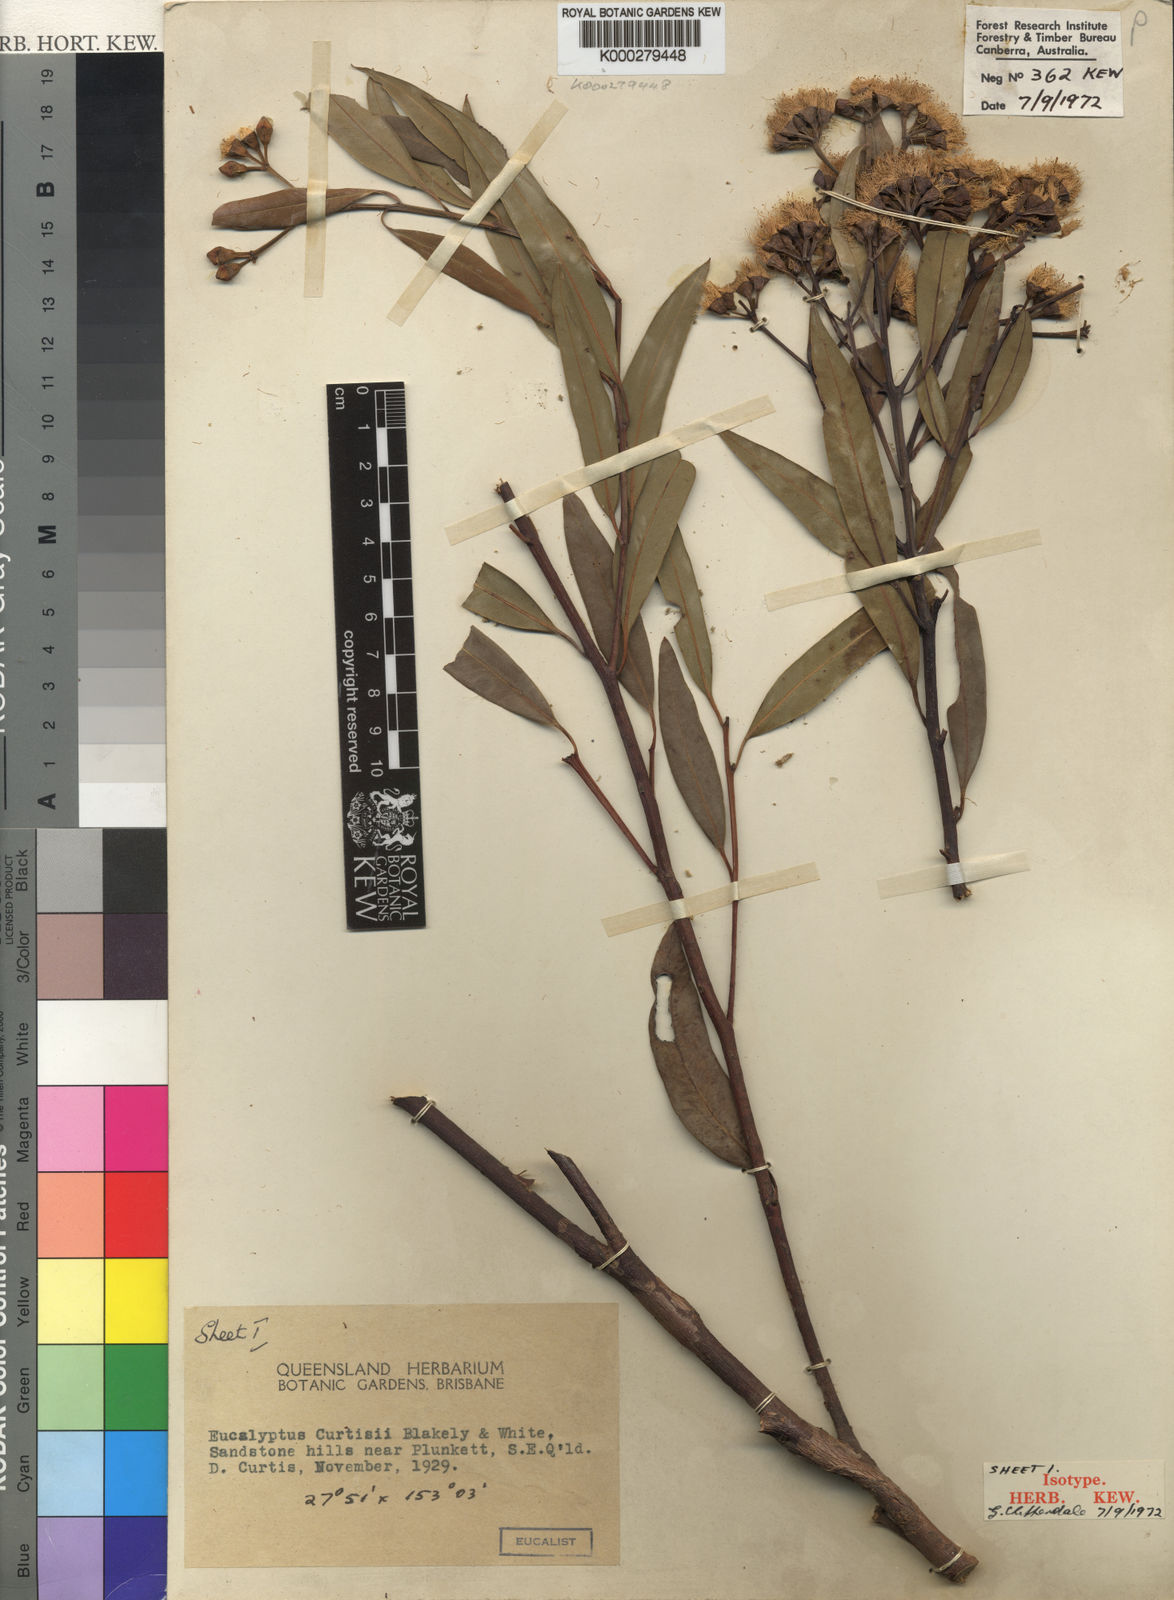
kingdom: Plantae
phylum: Tracheophyta
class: Magnoliopsida
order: Myrtales
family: Myrtaceae
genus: Eucalyptus
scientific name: Eucalyptus curtisii
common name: Plunkett mallee
